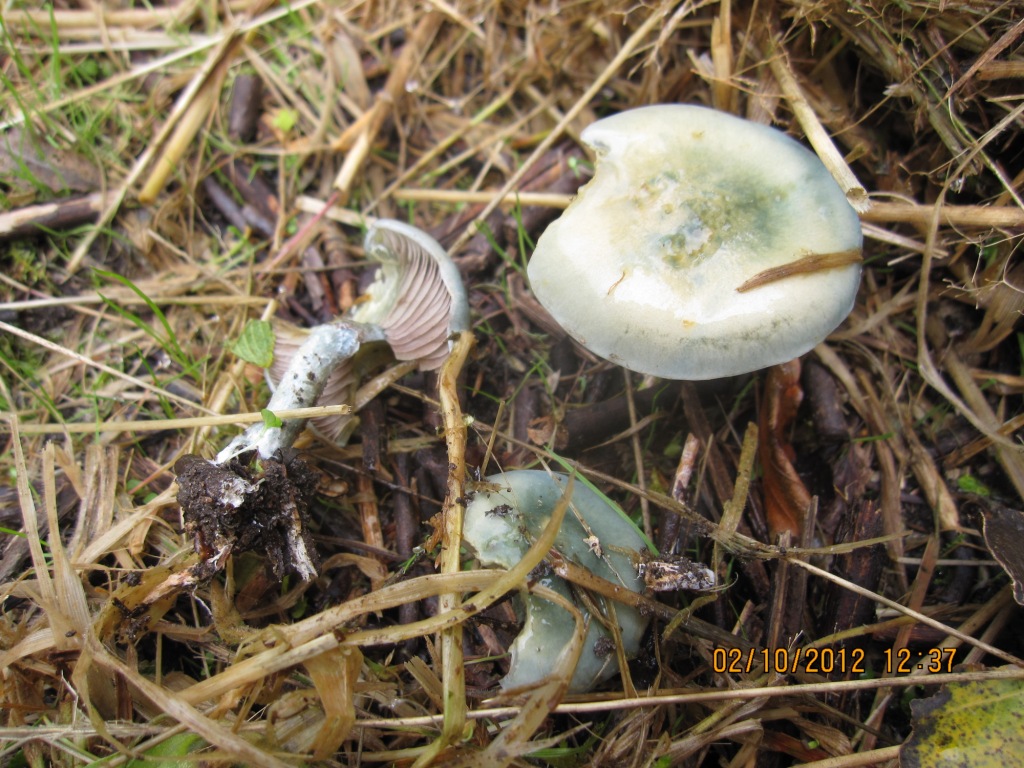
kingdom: Fungi
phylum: Basidiomycota
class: Agaricomycetes
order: Agaricales
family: Strophariaceae
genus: Stropharia
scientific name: Stropharia cyanea
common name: blågrøn bredblad
